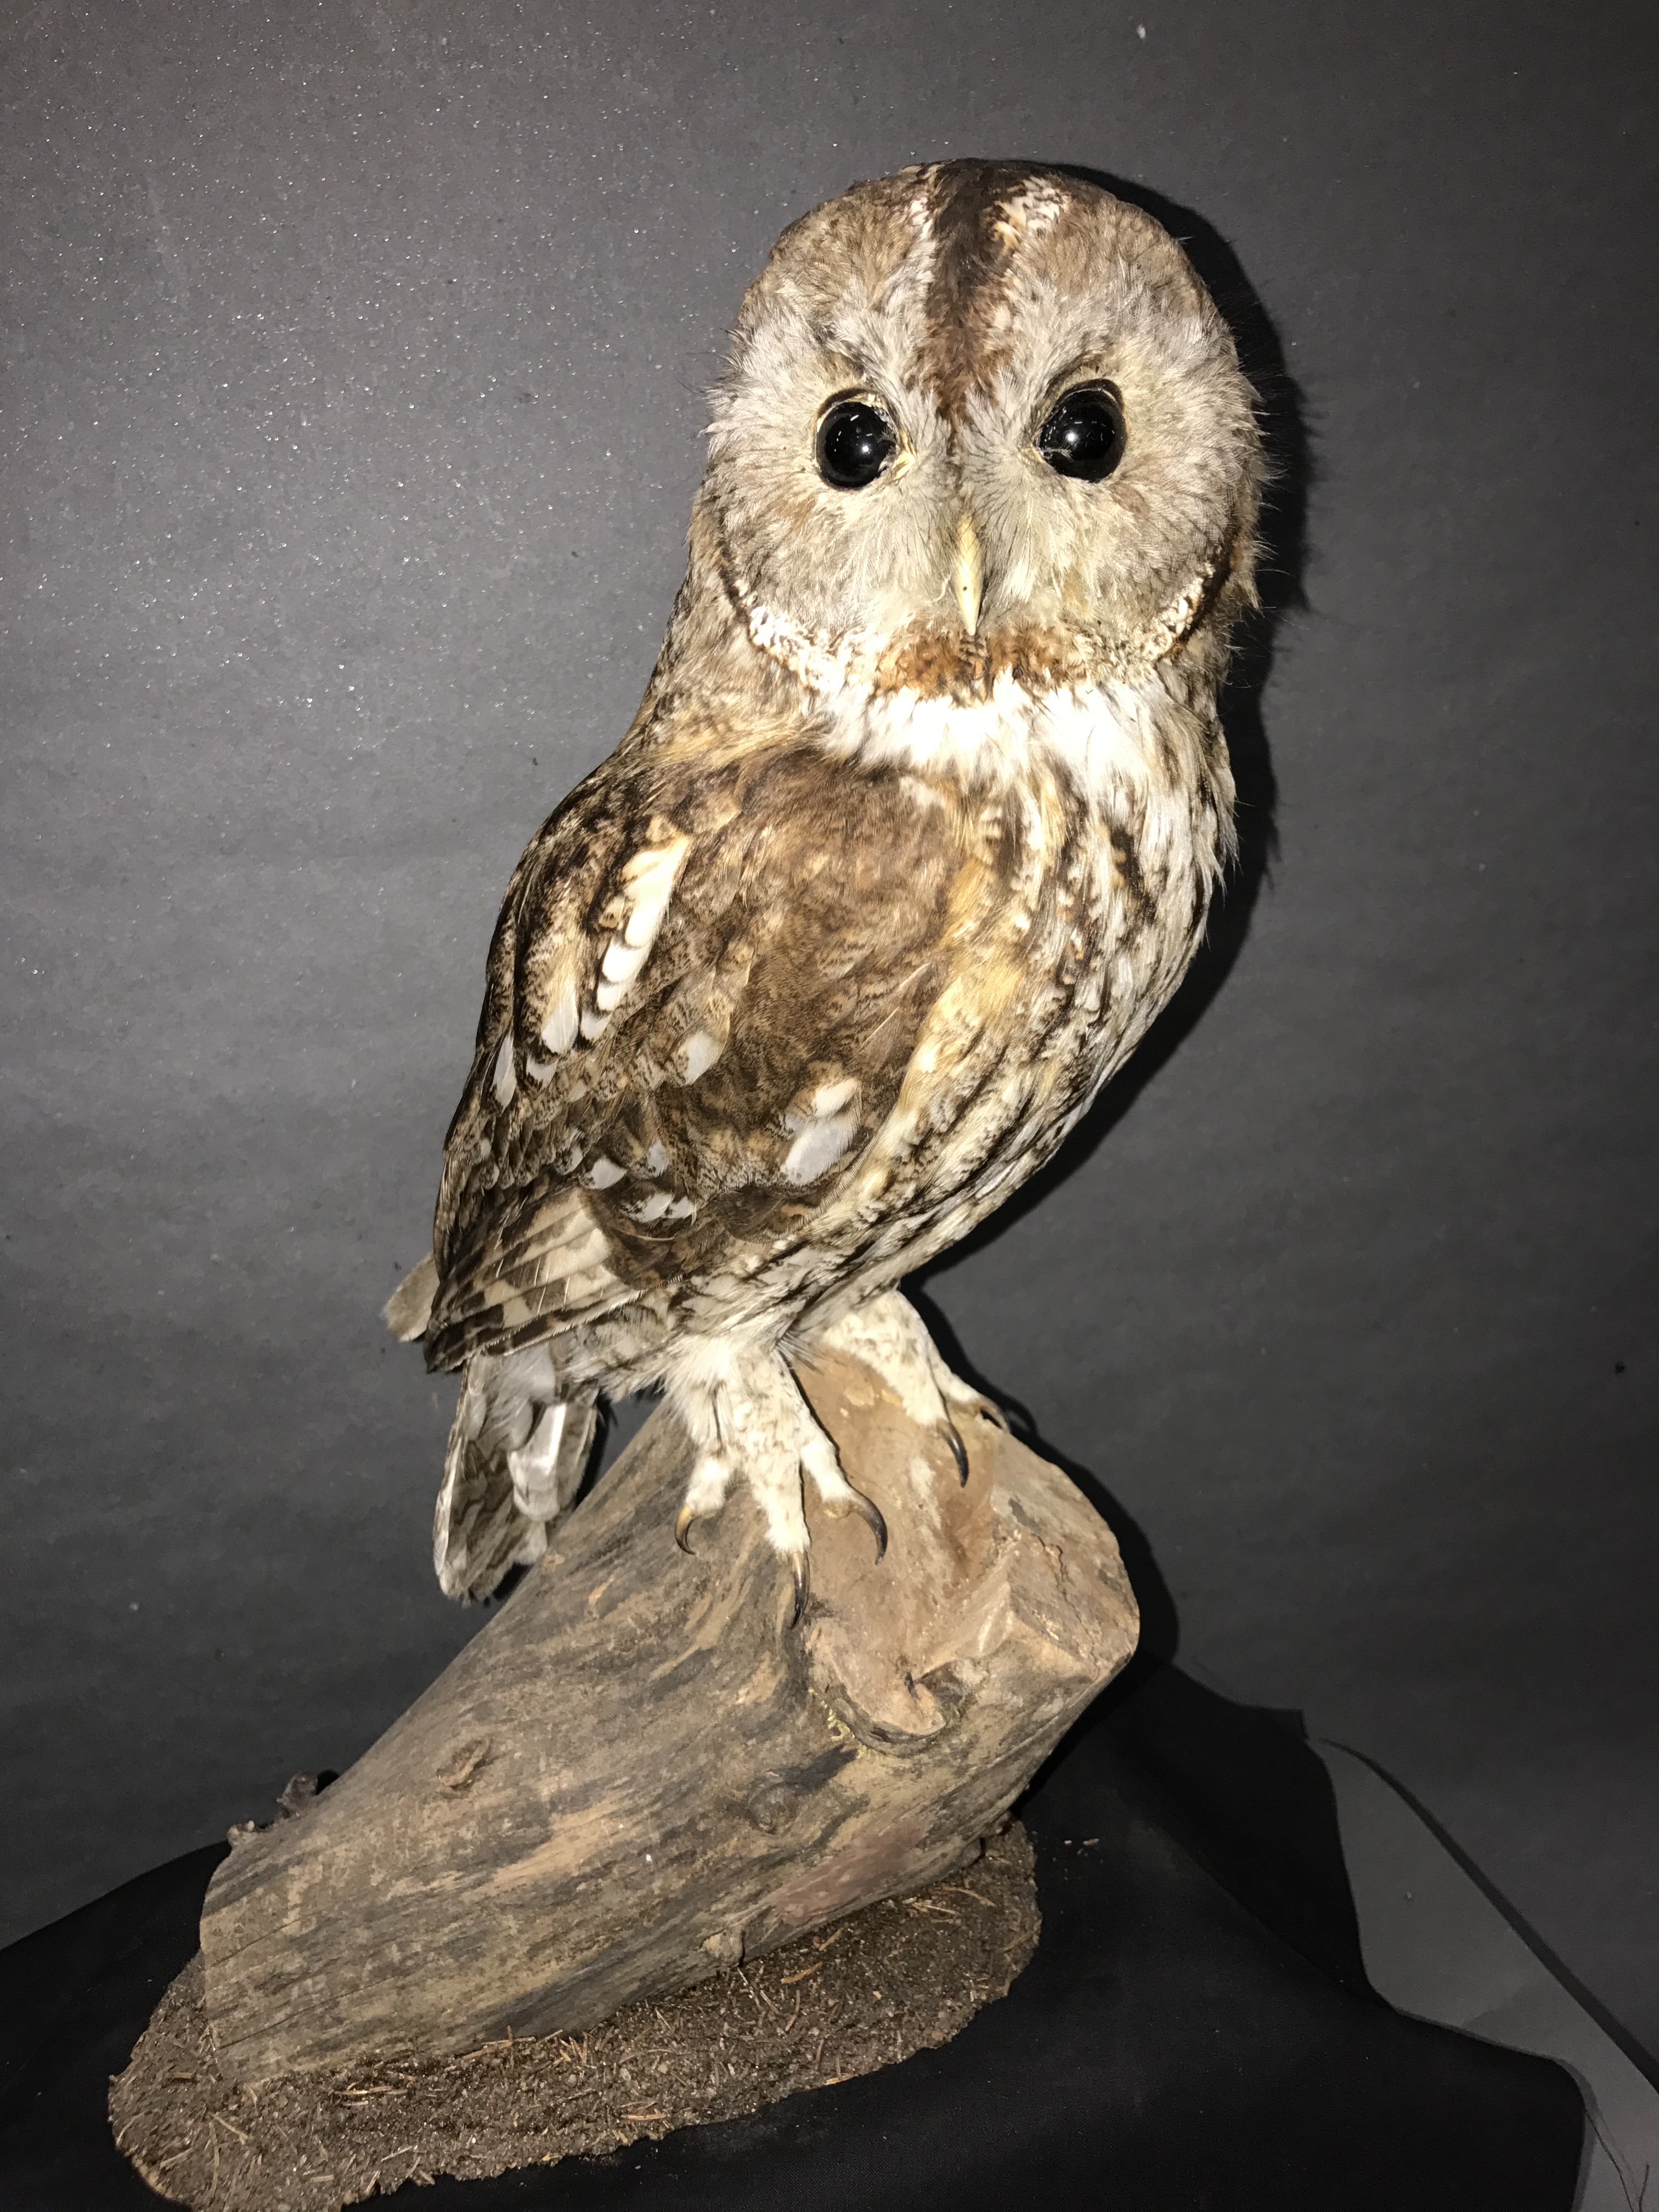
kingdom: Animalia
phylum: Chordata
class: Aves
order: Strigiformes
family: Strigidae
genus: Strix
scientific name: Strix aluco
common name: Tawny owl
